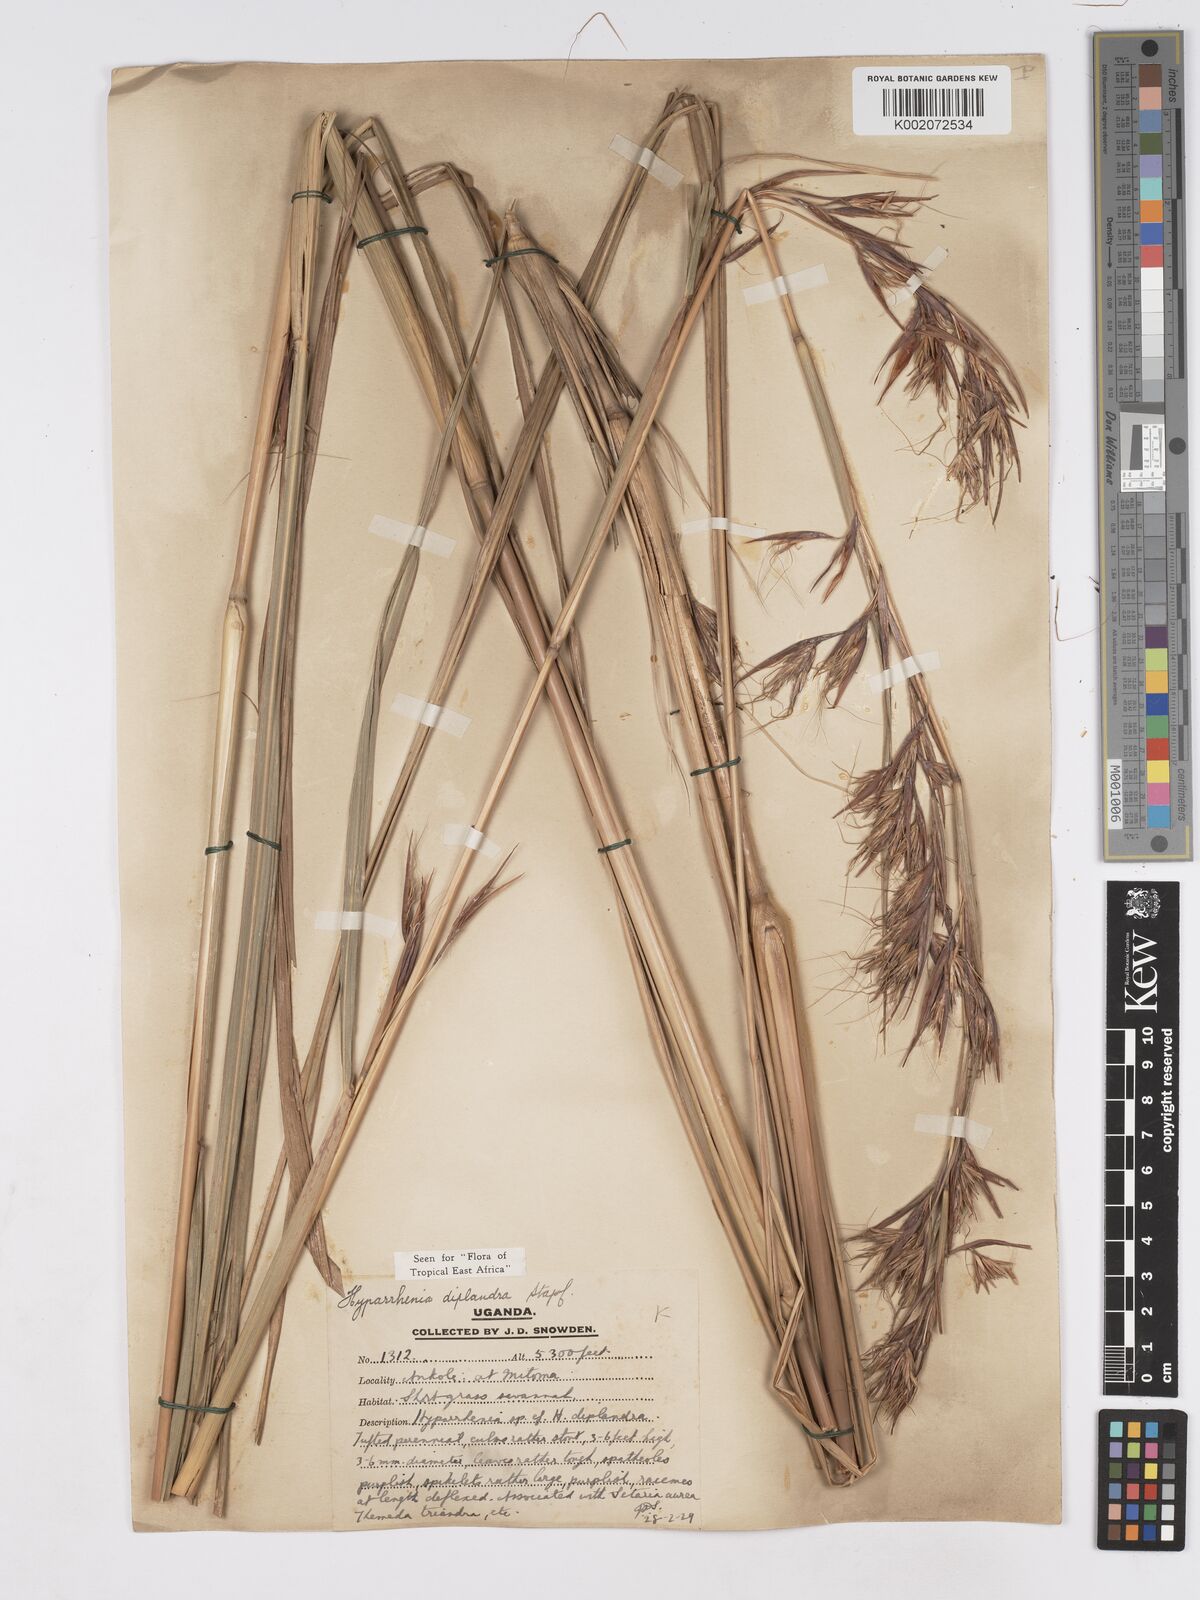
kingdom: Plantae
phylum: Tracheophyta
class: Liliopsida
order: Poales
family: Poaceae
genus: Hyparrhenia
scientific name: Hyparrhenia diplandra
